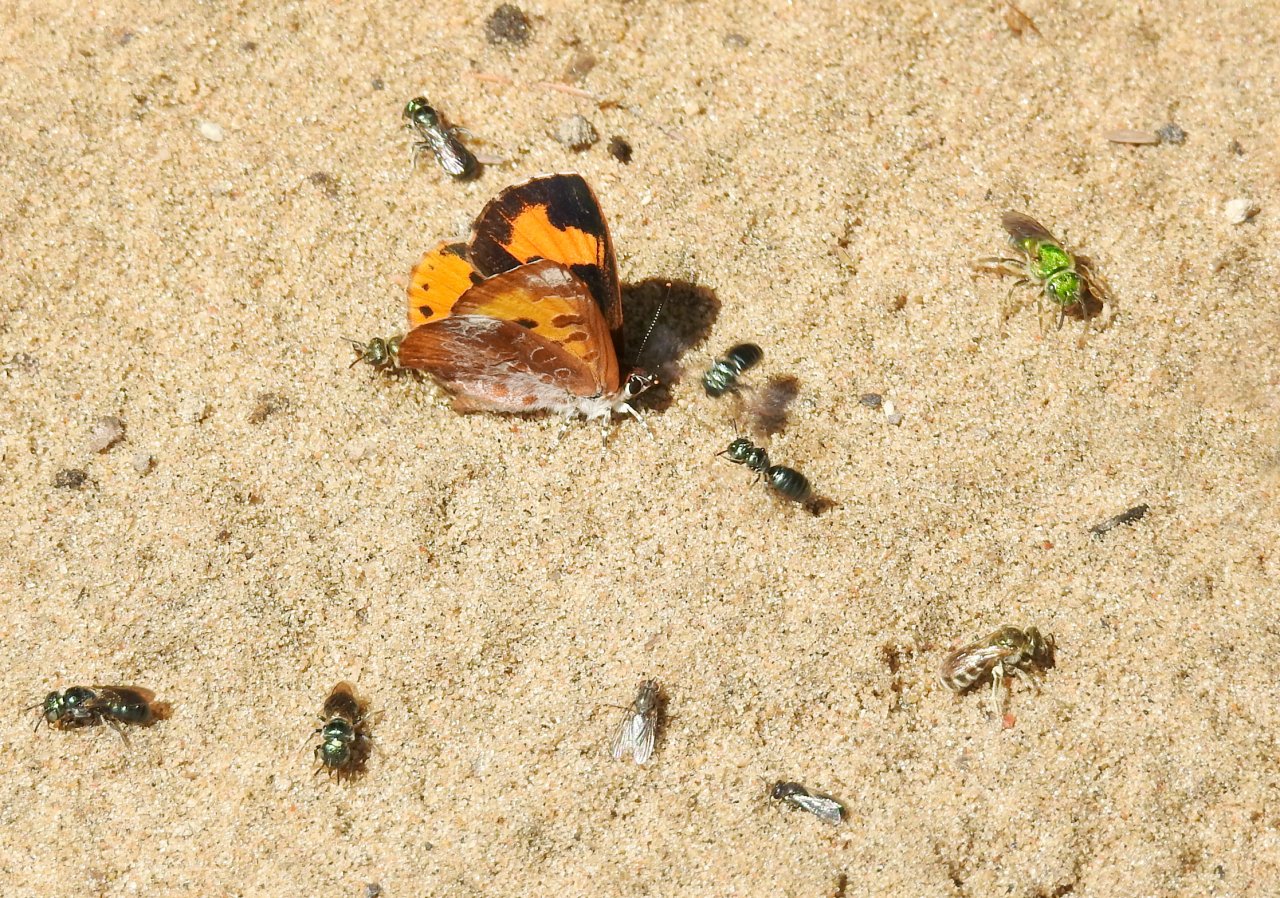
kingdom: Animalia
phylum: Arthropoda
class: Insecta
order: Lepidoptera
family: Lycaenidae
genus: Feniseca
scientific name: Feniseca tarquinius
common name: Harvester
